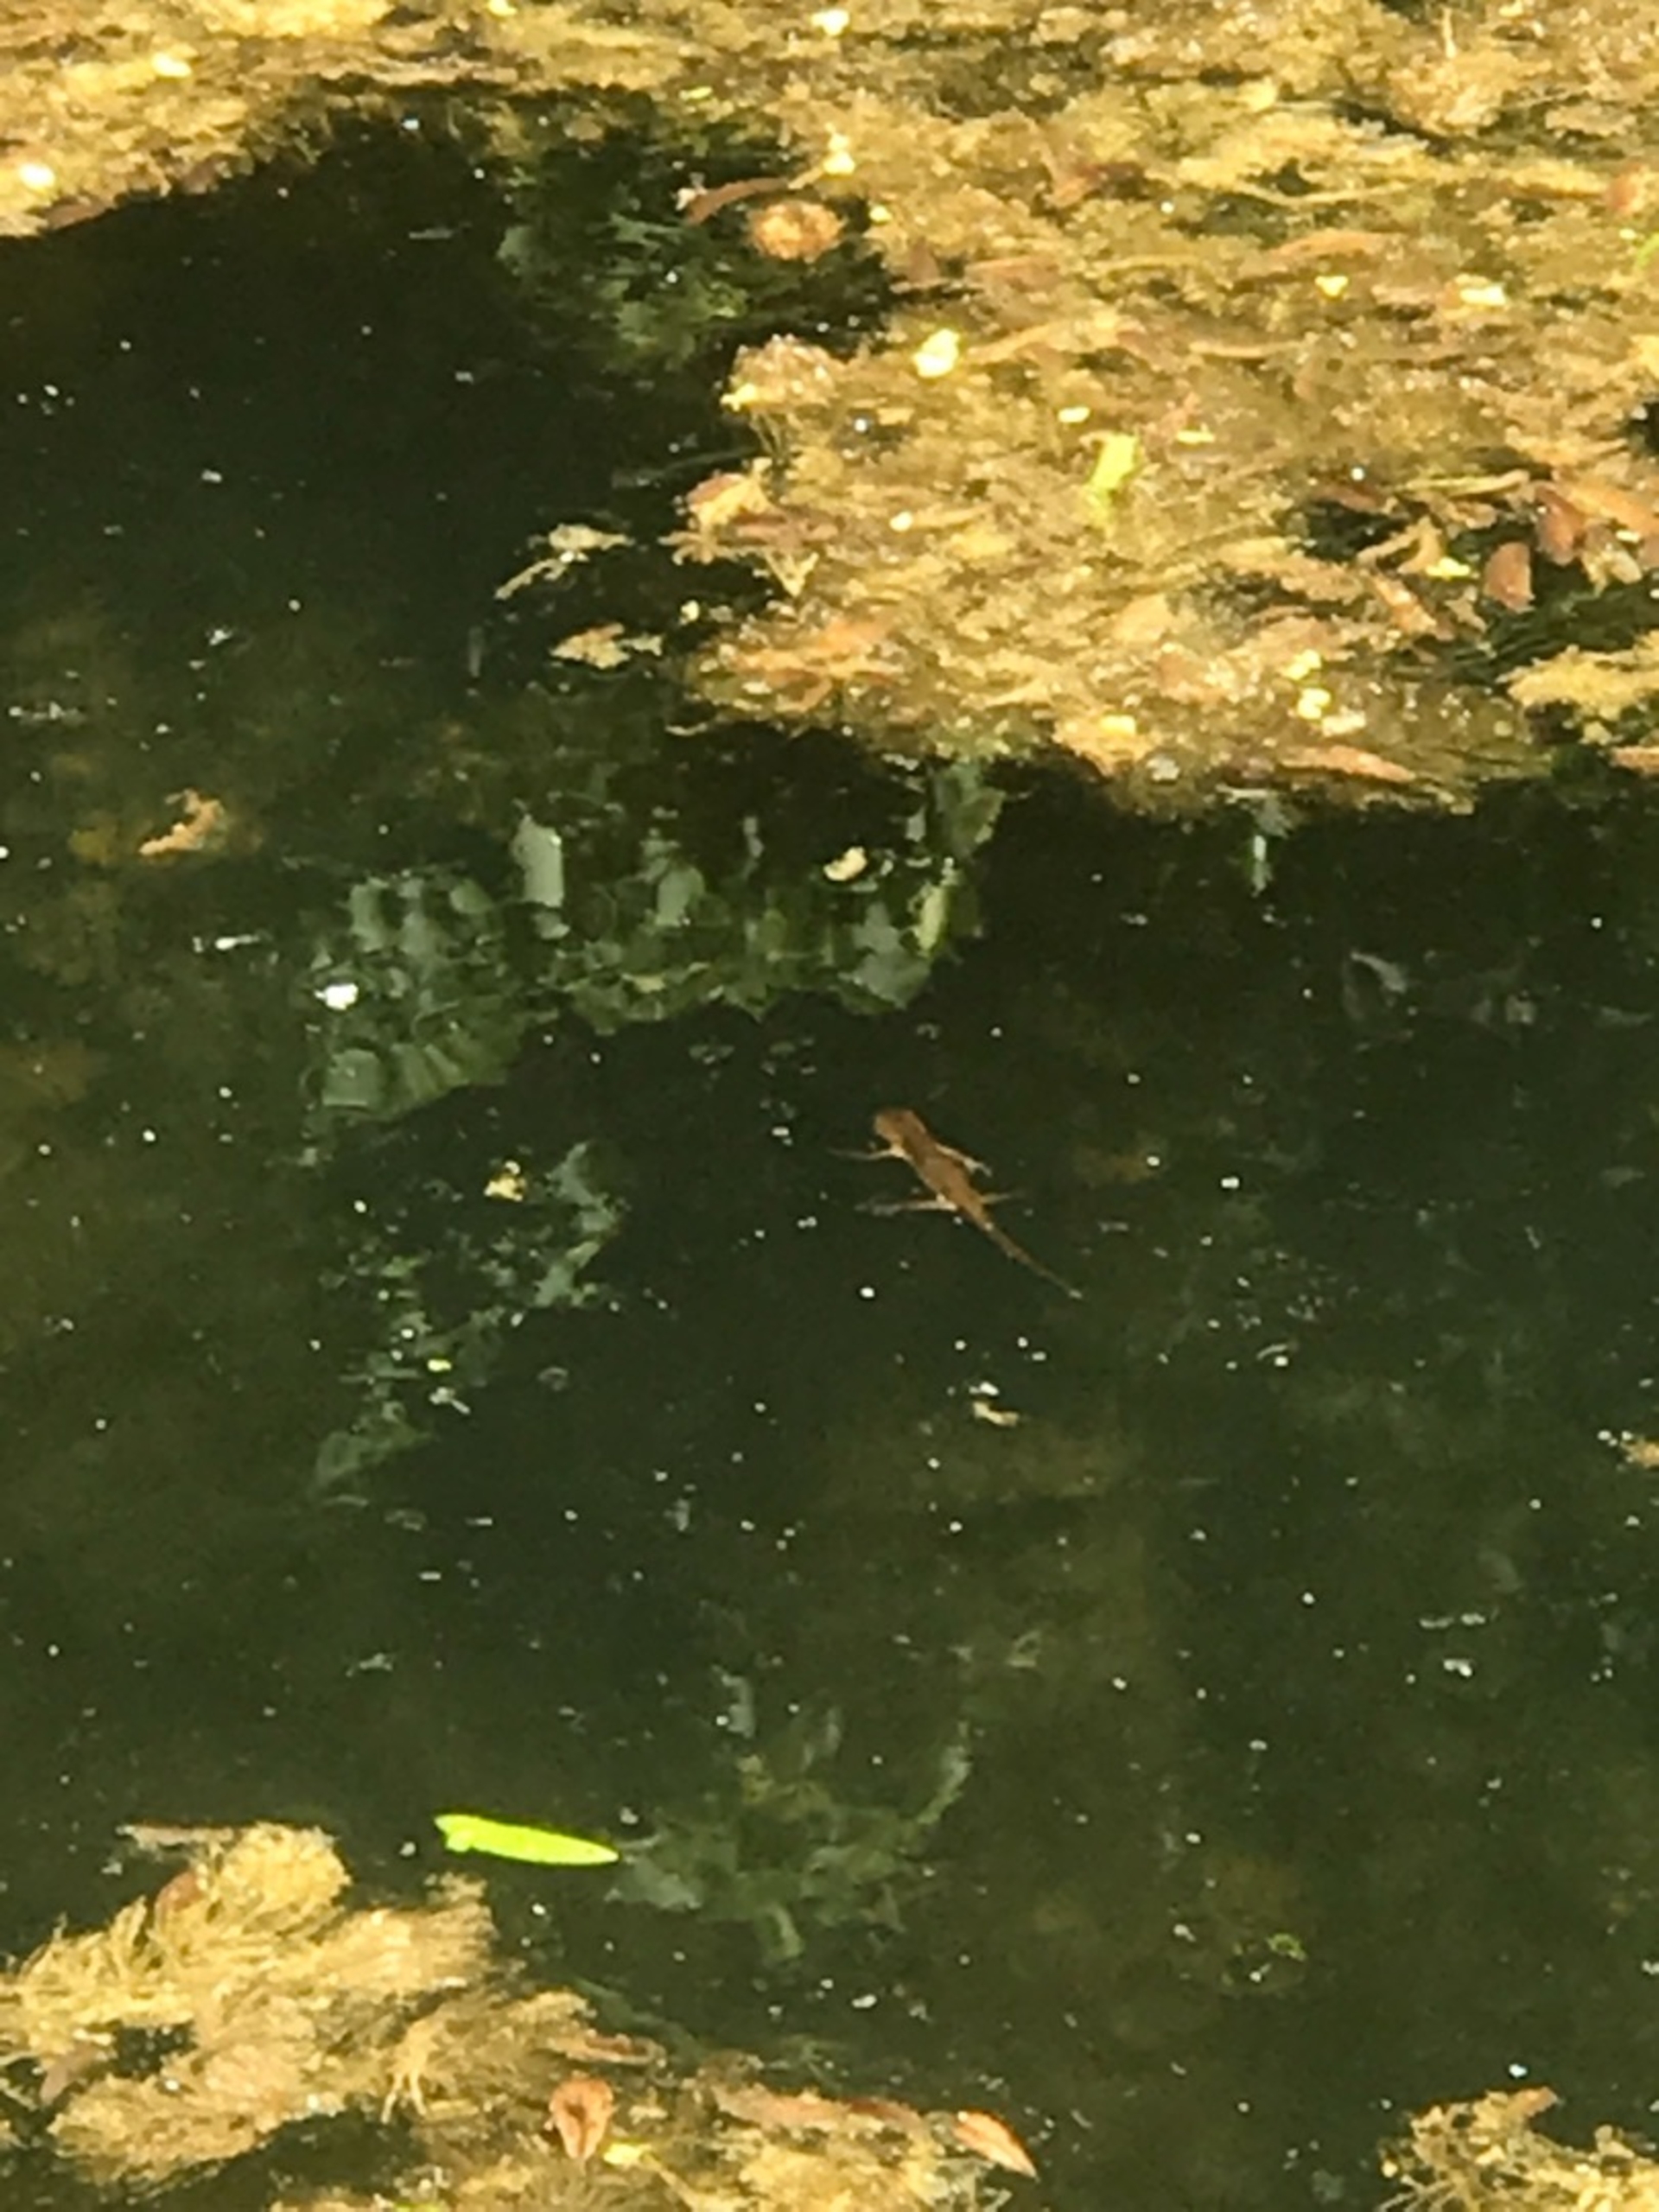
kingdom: Animalia
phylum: Chordata
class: Amphibia
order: Caudata
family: Salamandridae
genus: Lissotriton
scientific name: Lissotriton vulgaris
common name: Lille vandsalamander
